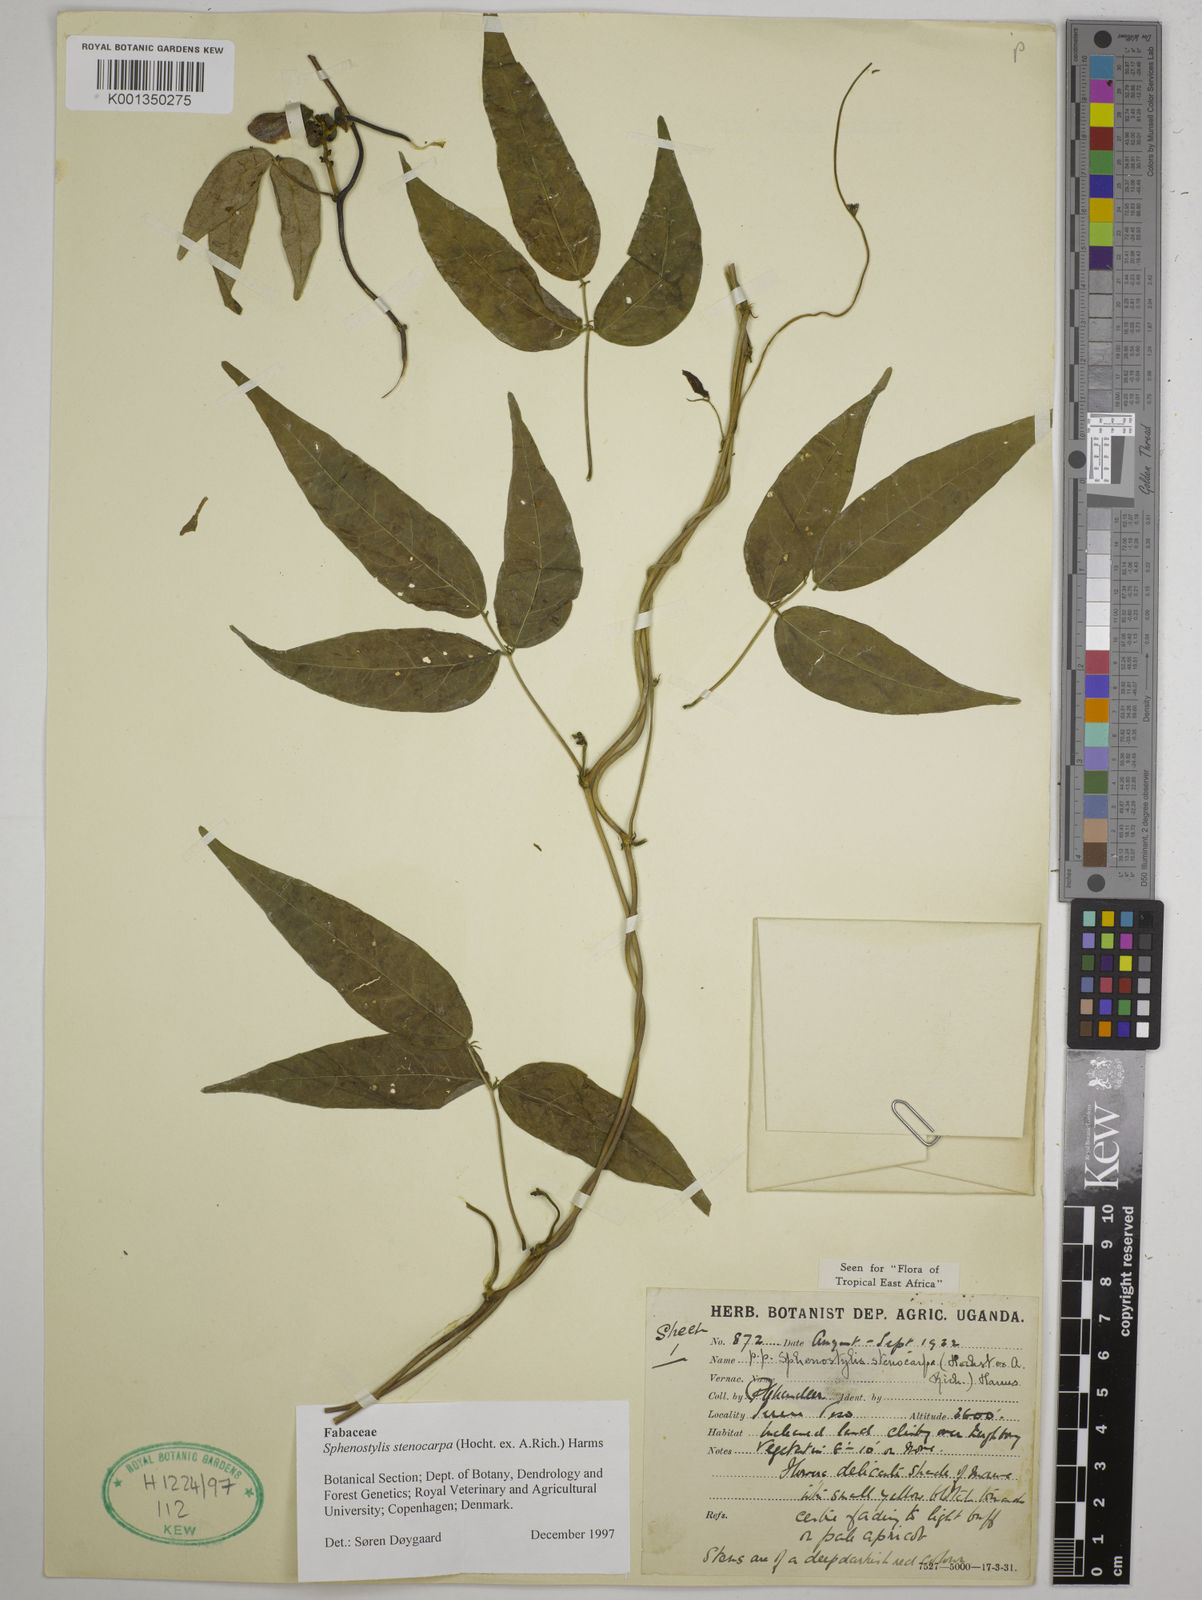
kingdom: Plantae
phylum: Tracheophyta
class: Magnoliopsida
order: Fabales
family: Fabaceae
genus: Sphenostylis
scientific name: Sphenostylis stenocarpa
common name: Yam-pea
